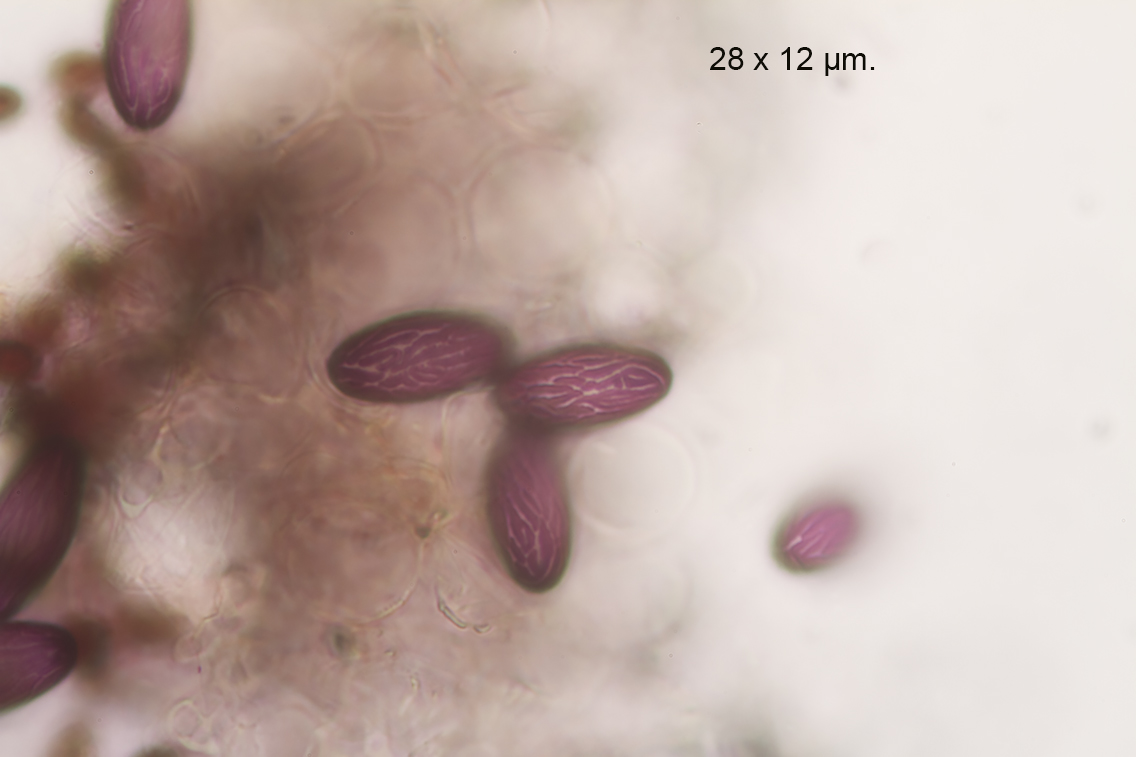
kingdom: Fungi
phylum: Ascomycota
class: Pezizomycetes
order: Pezizales
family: Ascobolaceae
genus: Ascobolus
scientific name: Ascobolus albidus
